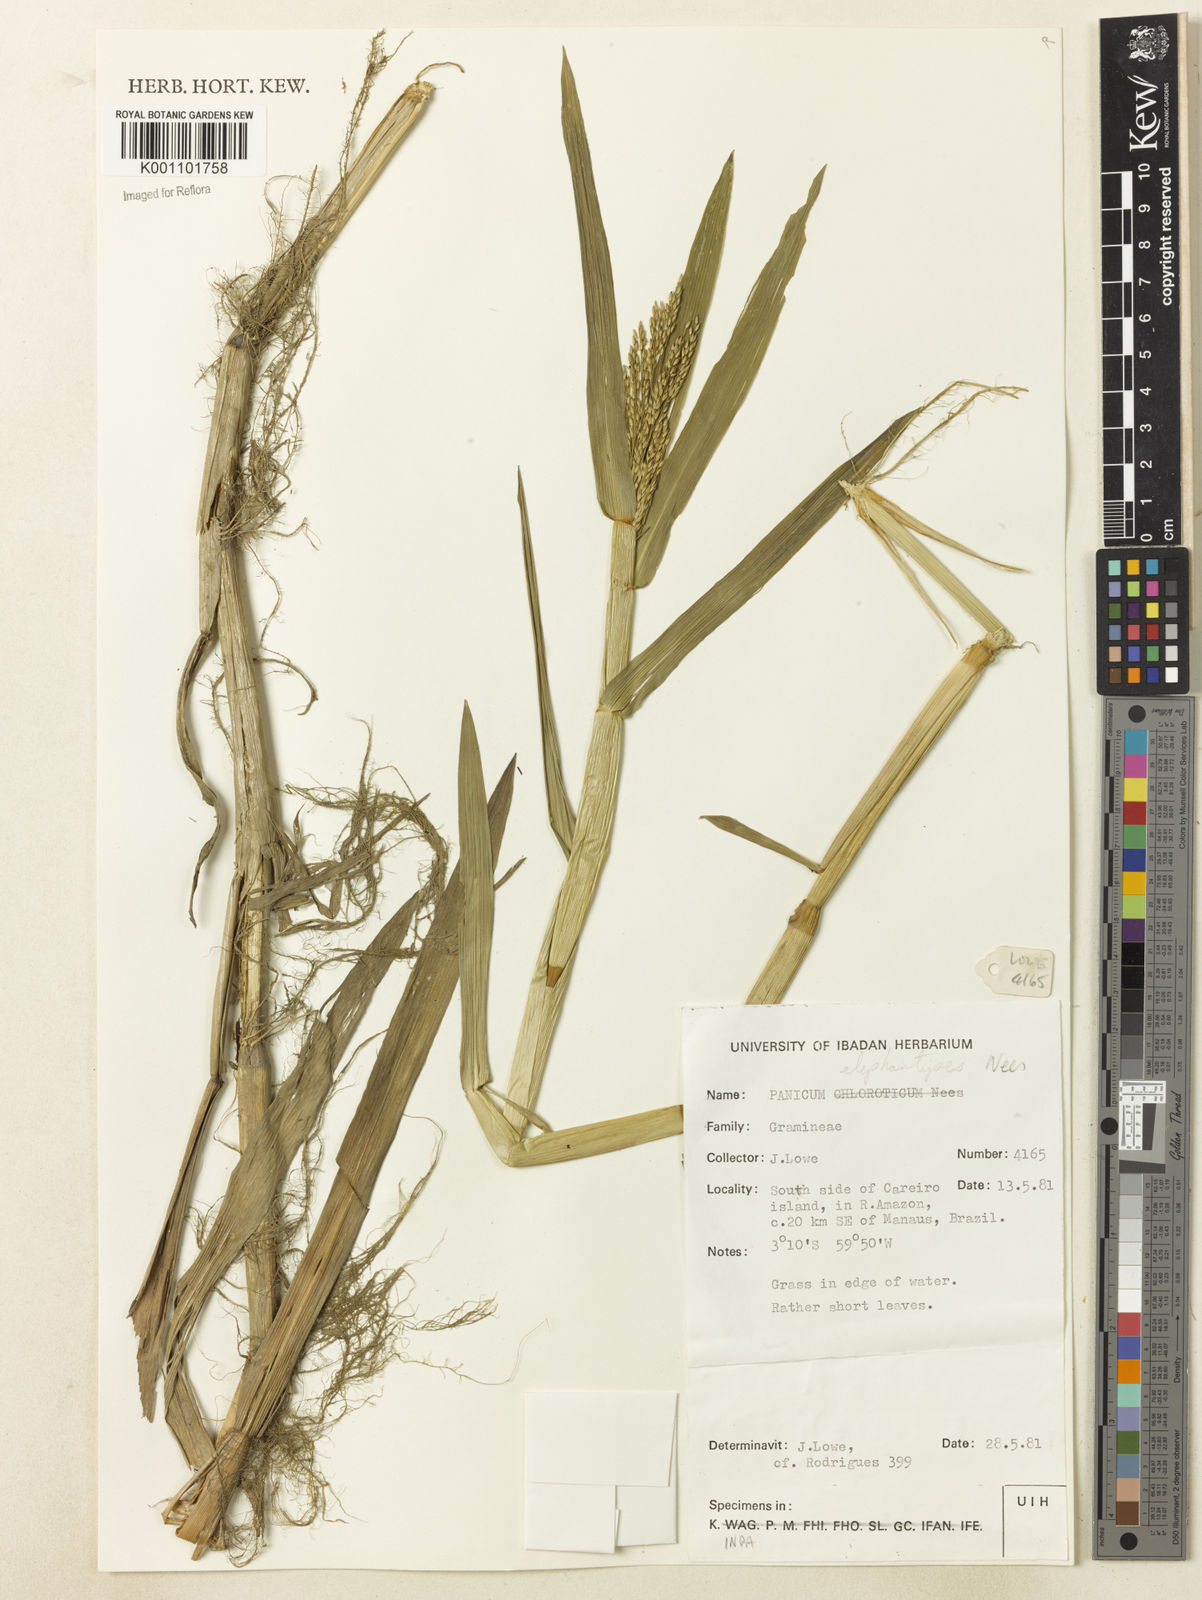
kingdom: Plantae
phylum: Tracheophyta
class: Liliopsida
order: Poales
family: Poaceae
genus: Louisiella
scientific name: Louisiella elephantipes
